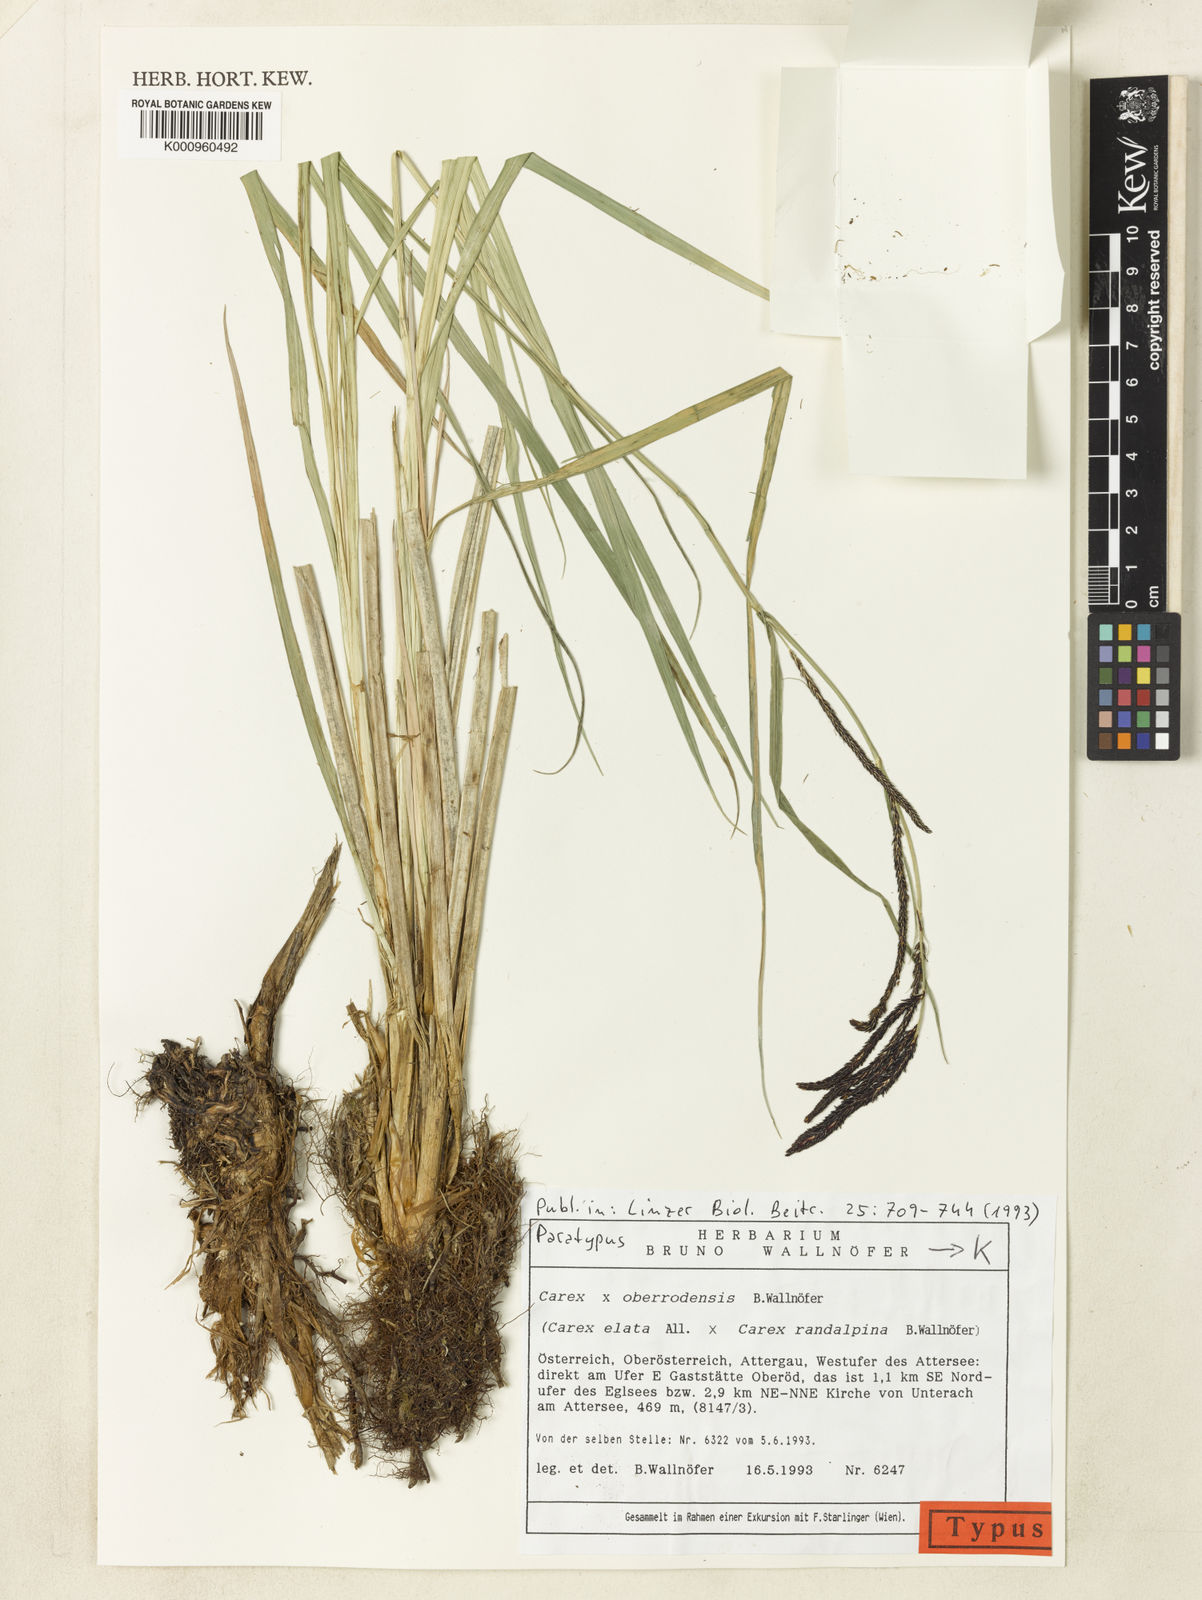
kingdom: Plantae
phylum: Tracheophyta
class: Liliopsida
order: Poales
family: Cyperaceae
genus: Carex
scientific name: Carex oberrodensis
